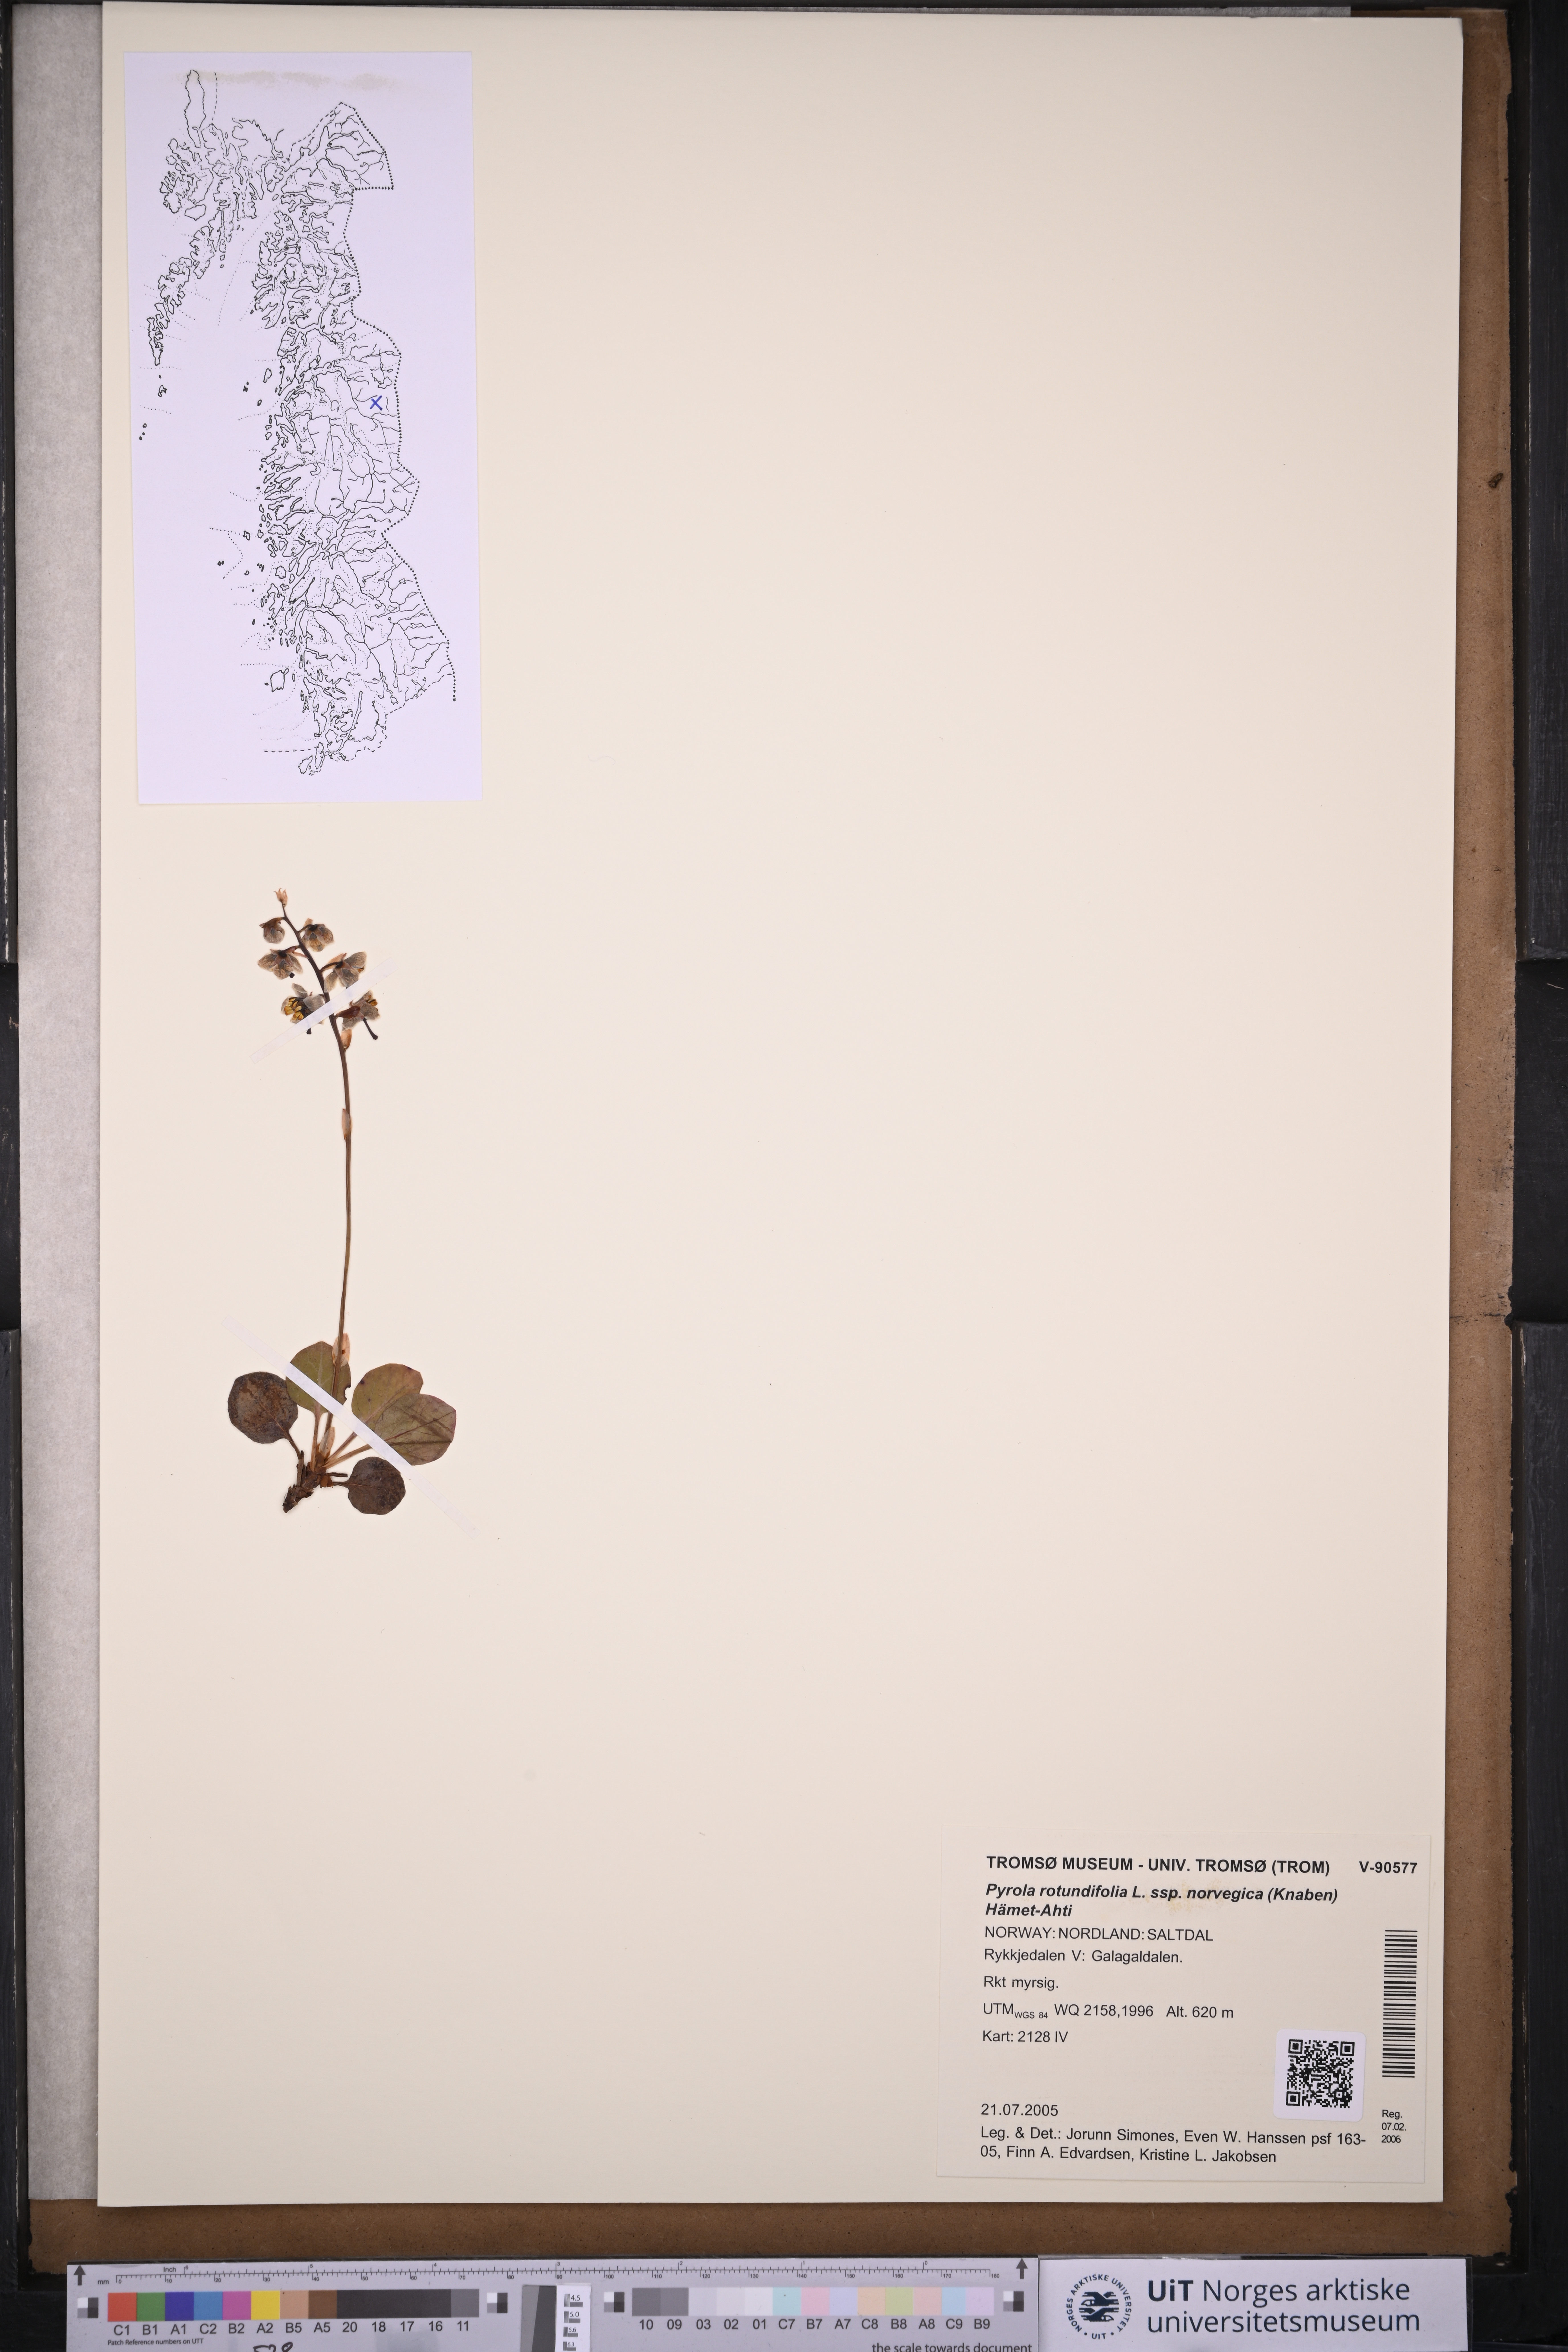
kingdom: Plantae
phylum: Tracheophyta
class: Magnoliopsida
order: Ericales
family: Ericaceae
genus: Pyrola
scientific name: Pyrola rotundifolia
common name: Round-leaved wintergreen
